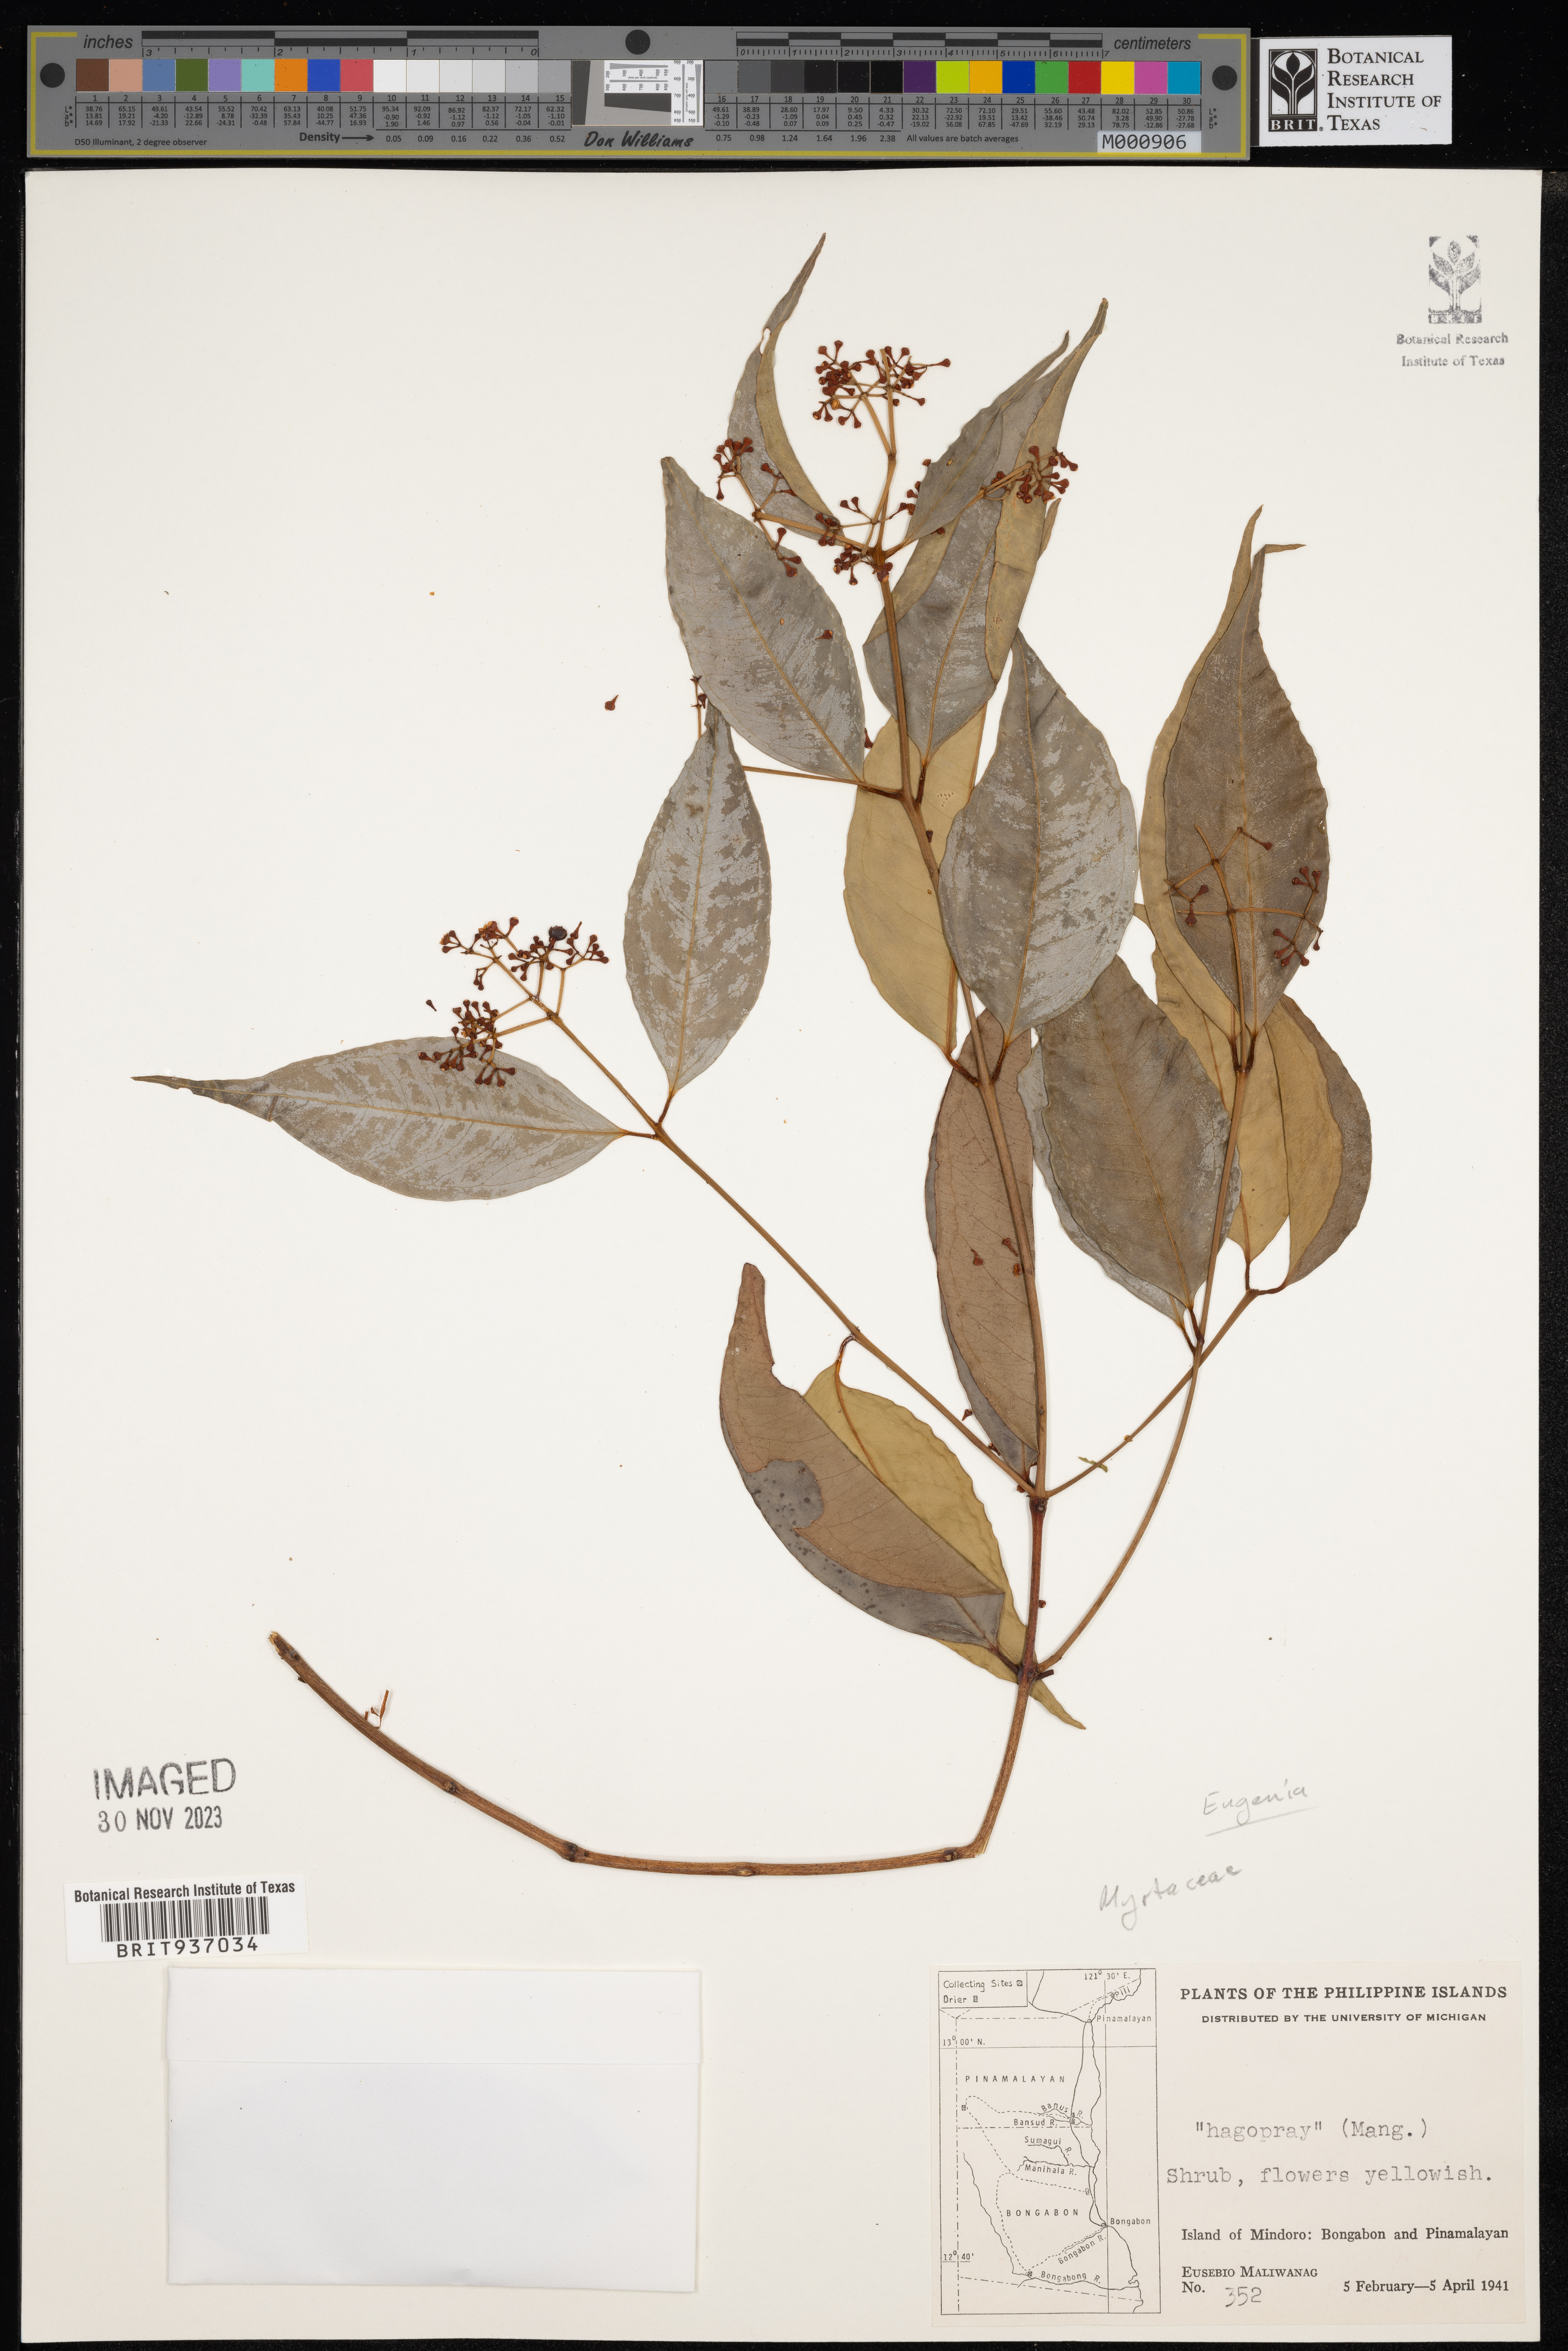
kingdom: Plantae
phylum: Tracheophyta
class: Magnoliopsida
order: Myrtales
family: Myrtaceae
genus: Eugenia
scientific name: Eugenia
